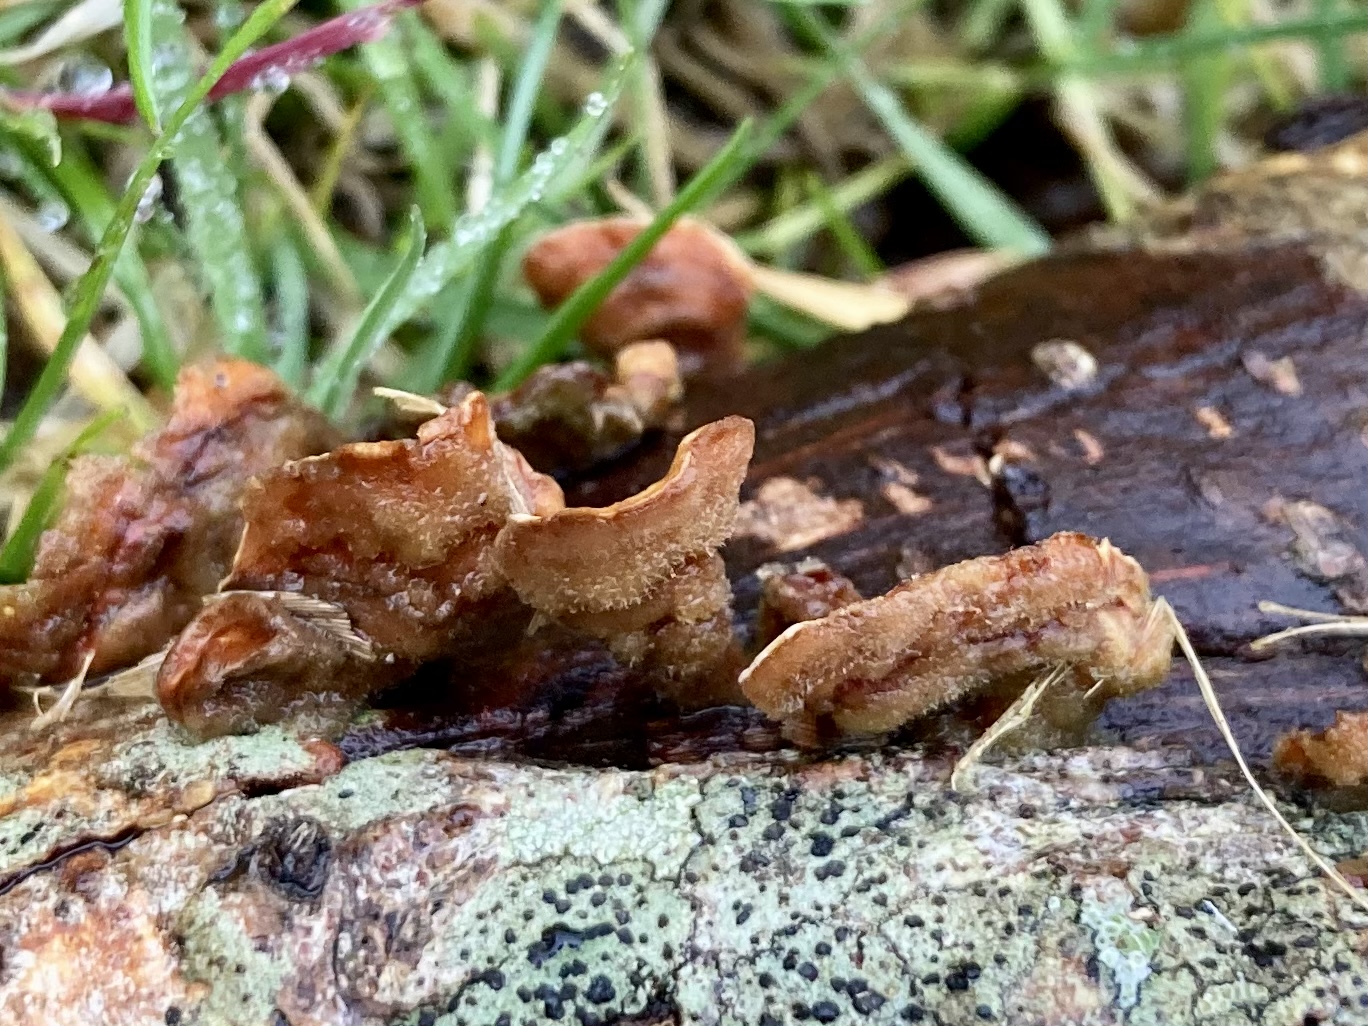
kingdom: Fungi
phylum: Basidiomycota
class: Agaricomycetes
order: Russulales
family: Stereaceae
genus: Stereum
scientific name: Stereum hirsutum
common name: håret lædersvamp
